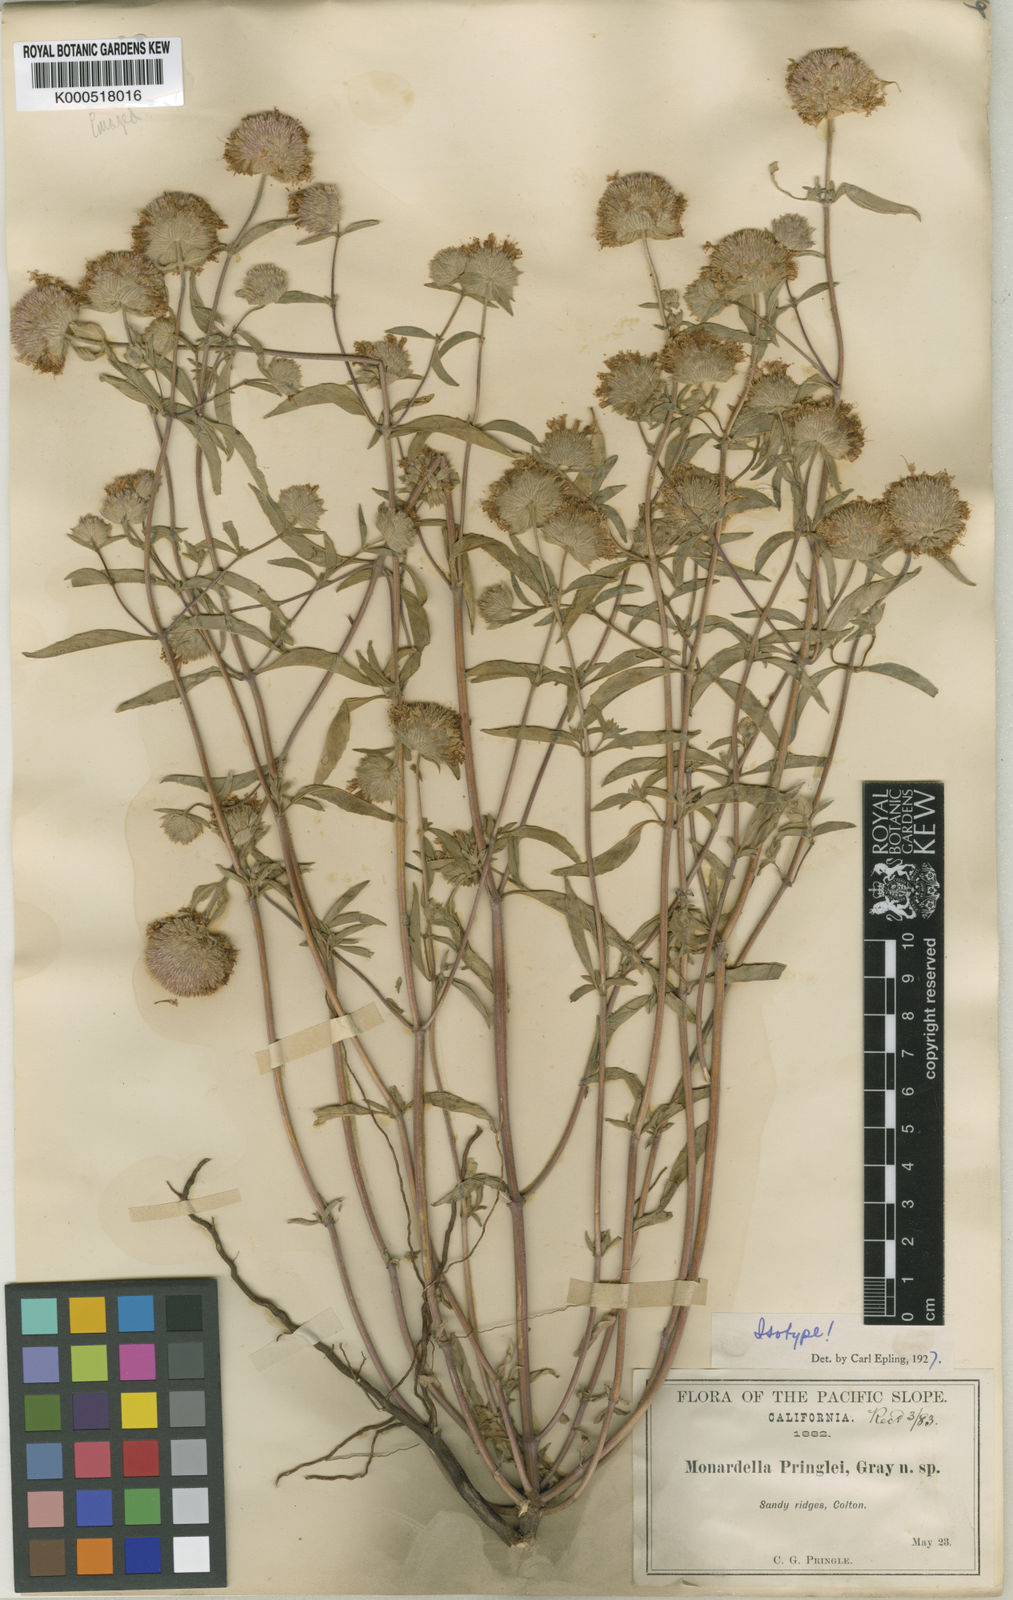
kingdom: Plantae
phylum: Tracheophyta
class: Magnoliopsida
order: Lamiales
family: Lamiaceae
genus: Monardella
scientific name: Monardella pringlei
